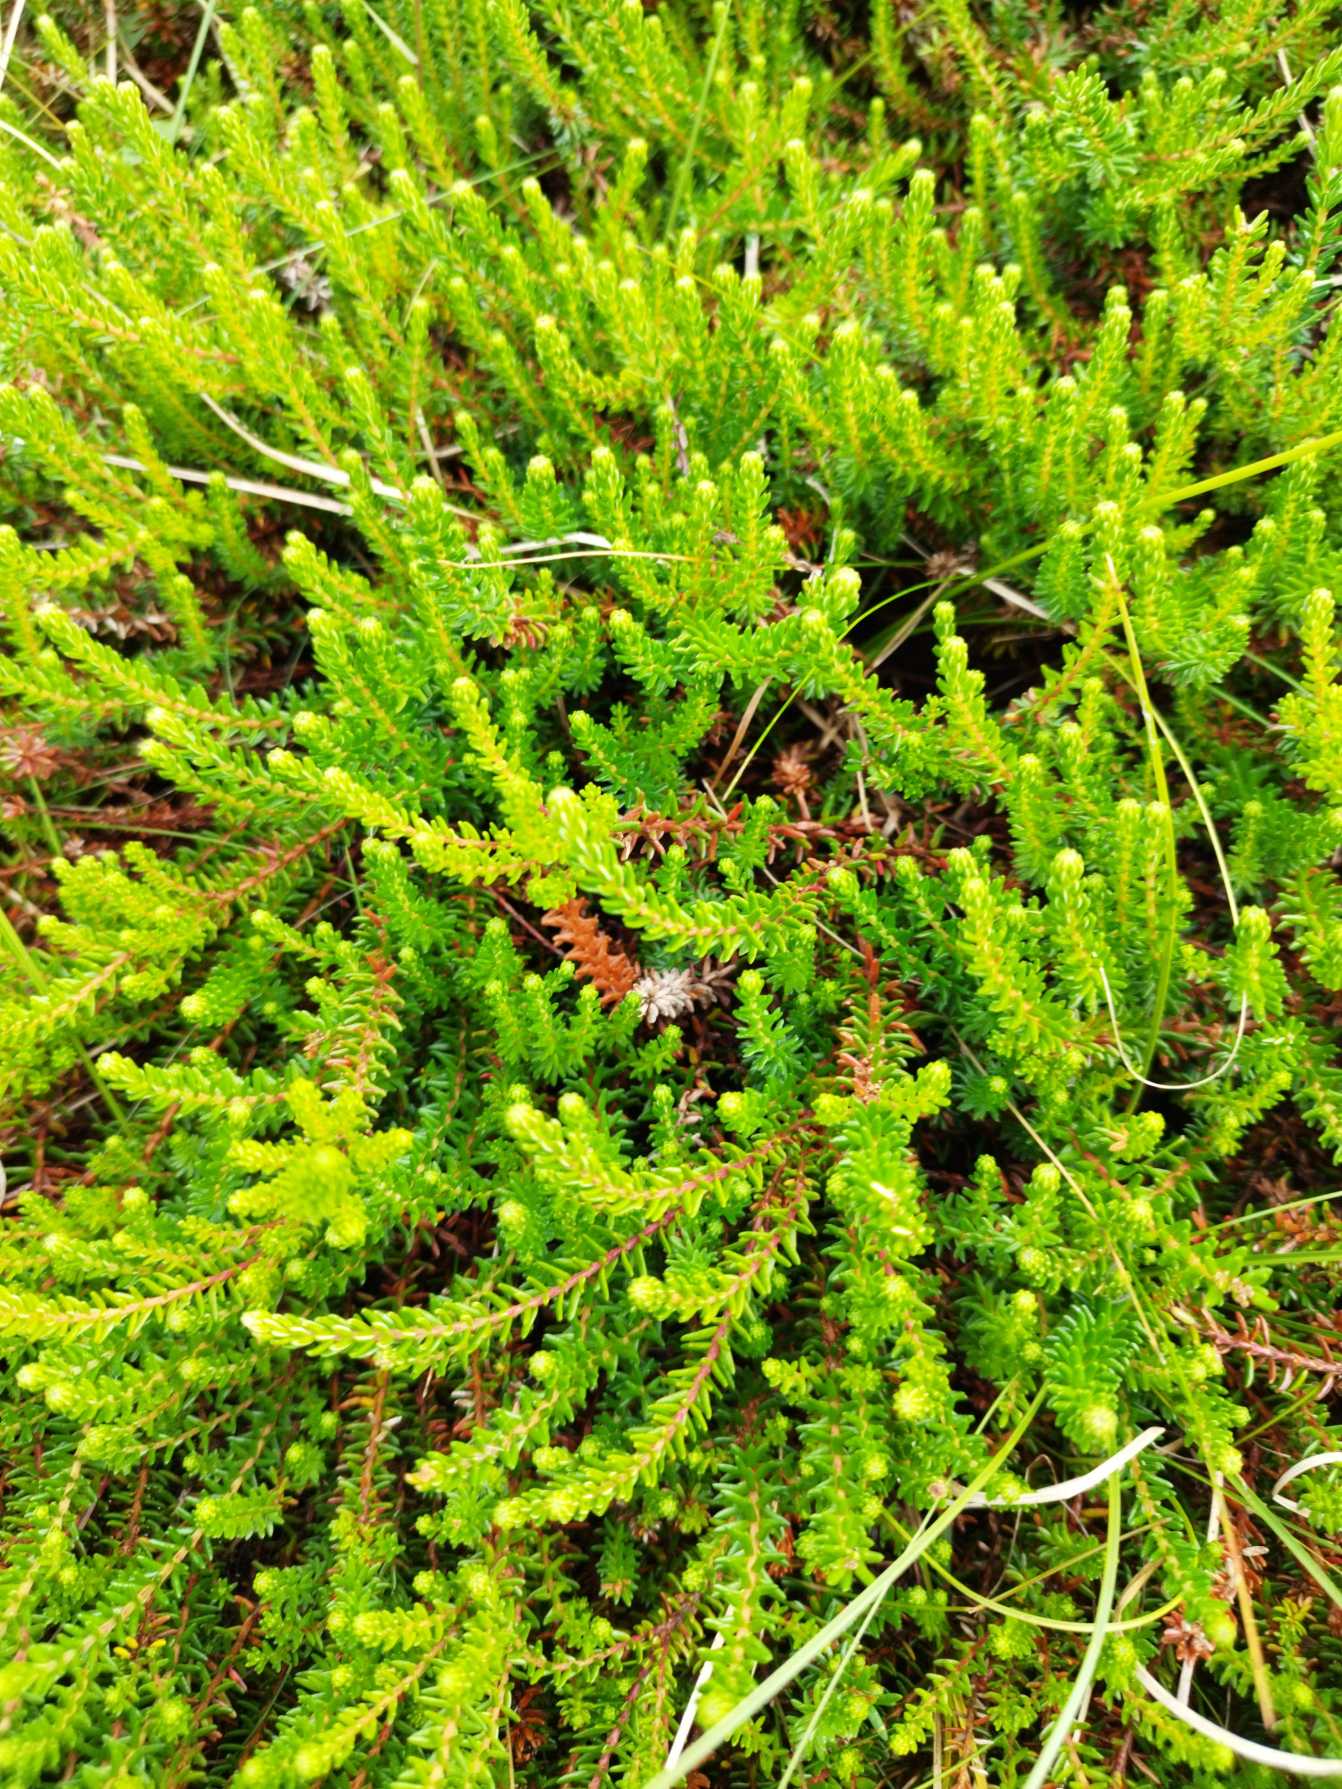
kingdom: Plantae
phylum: Tracheophyta
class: Magnoliopsida
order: Ericales
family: Ericaceae
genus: Empetrum
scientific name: Empetrum nigrum
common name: Revling
